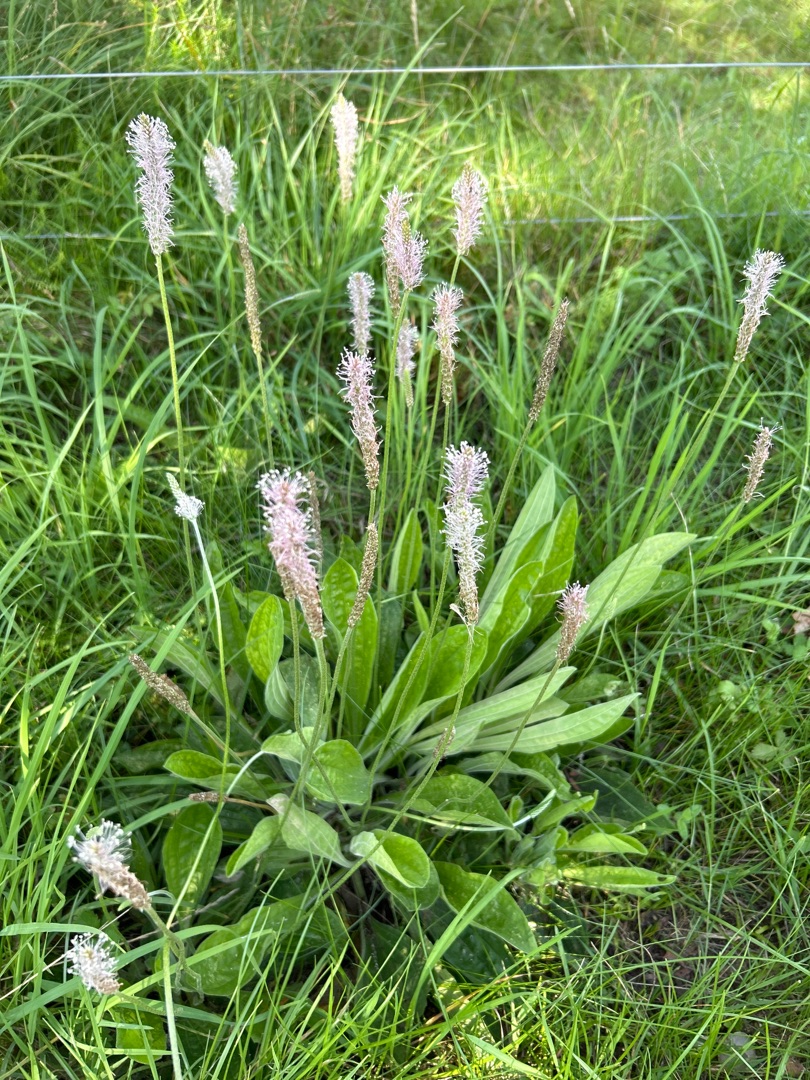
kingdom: Plantae
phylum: Tracheophyta
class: Magnoliopsida
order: Lamiales
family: Plantaginaceae
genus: Plantago
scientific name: Plantago media
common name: Dunet vejbred
